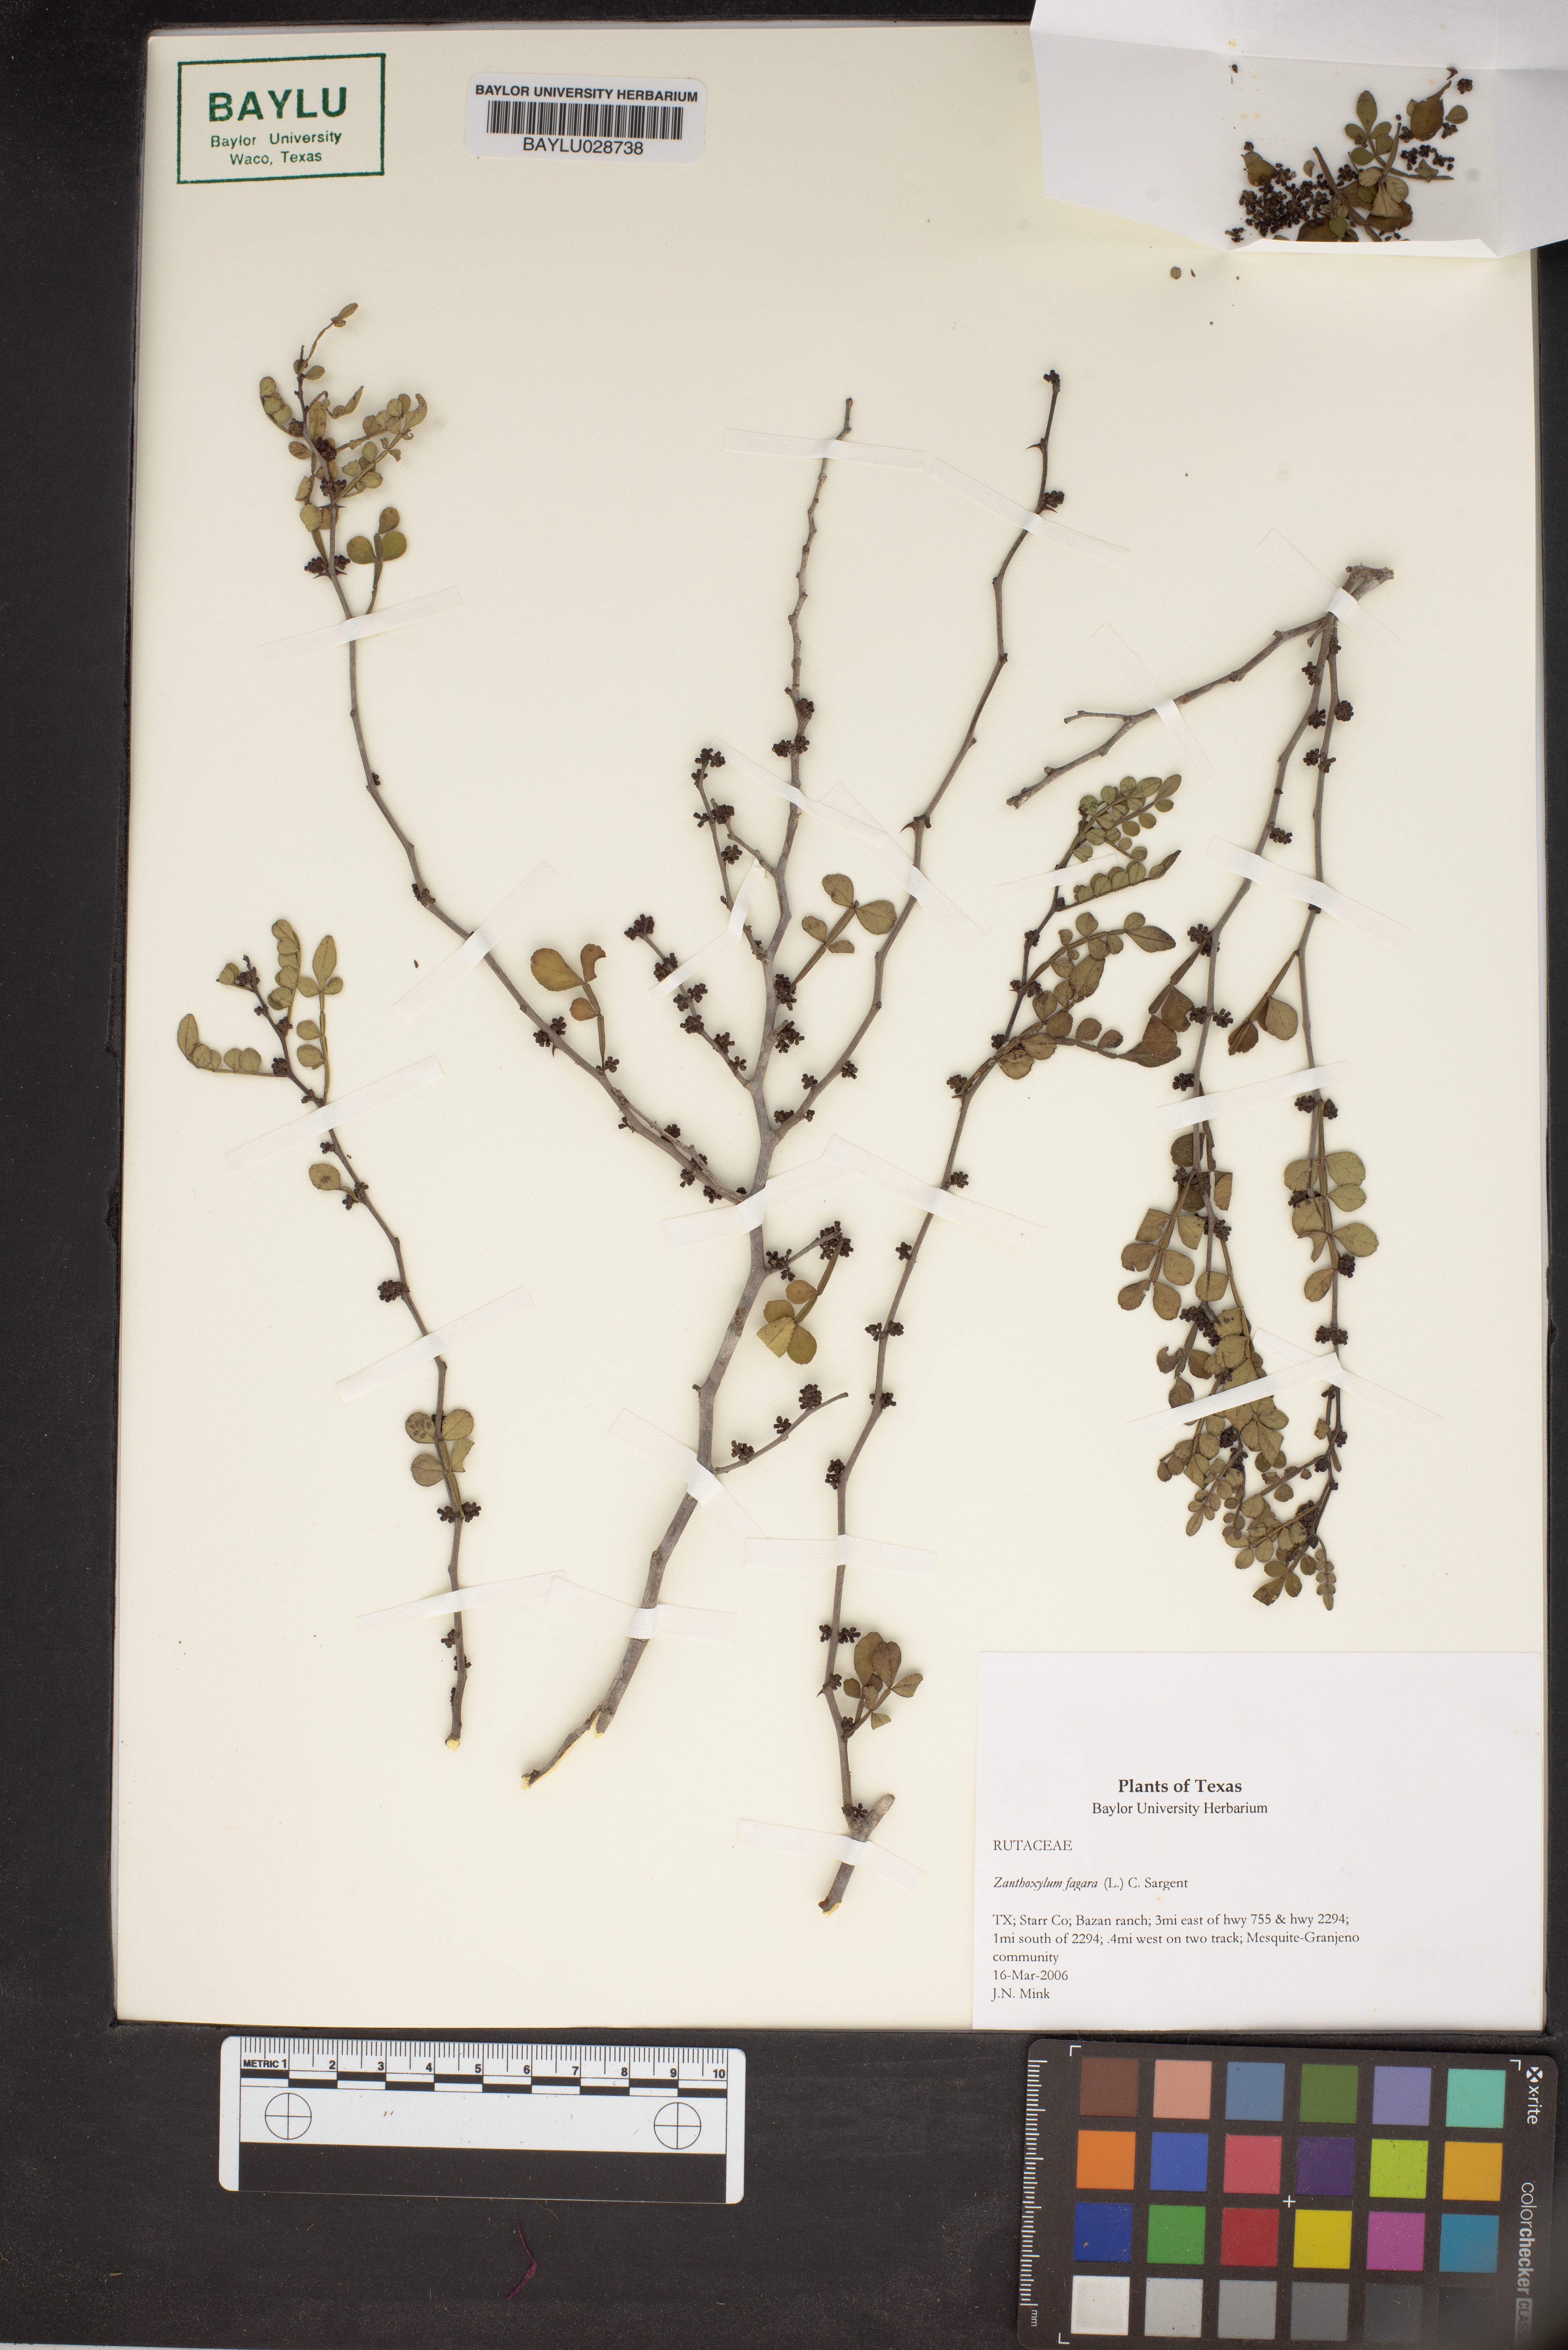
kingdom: Plantae
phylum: Tracheophyta
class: Magnoliopsida
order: Sapindales
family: Rutaceae
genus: Zanthoxylum
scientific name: Zanthoxylum fagara
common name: Lime prickly-ash
